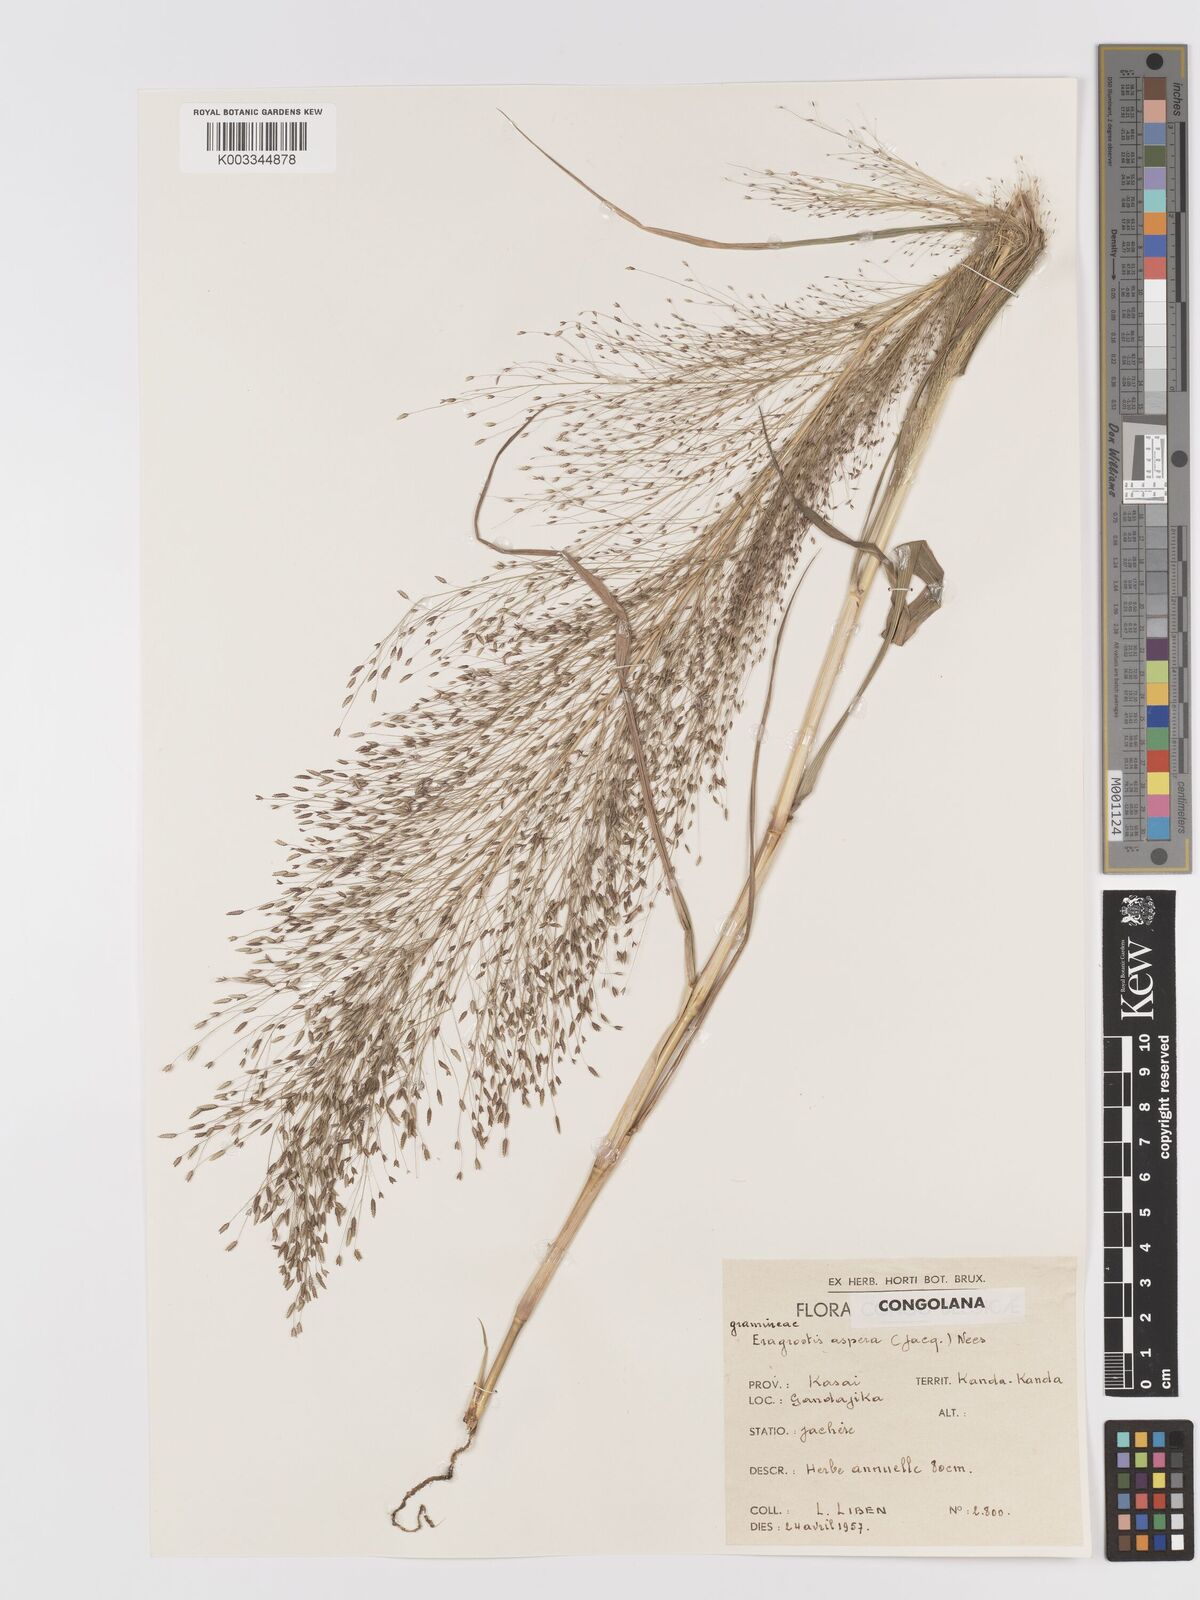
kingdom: Plantae
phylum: Tracheophyta
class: Liliopsida
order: Poales
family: Poaceae
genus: Eragrostis
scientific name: Eragrostis aspera
